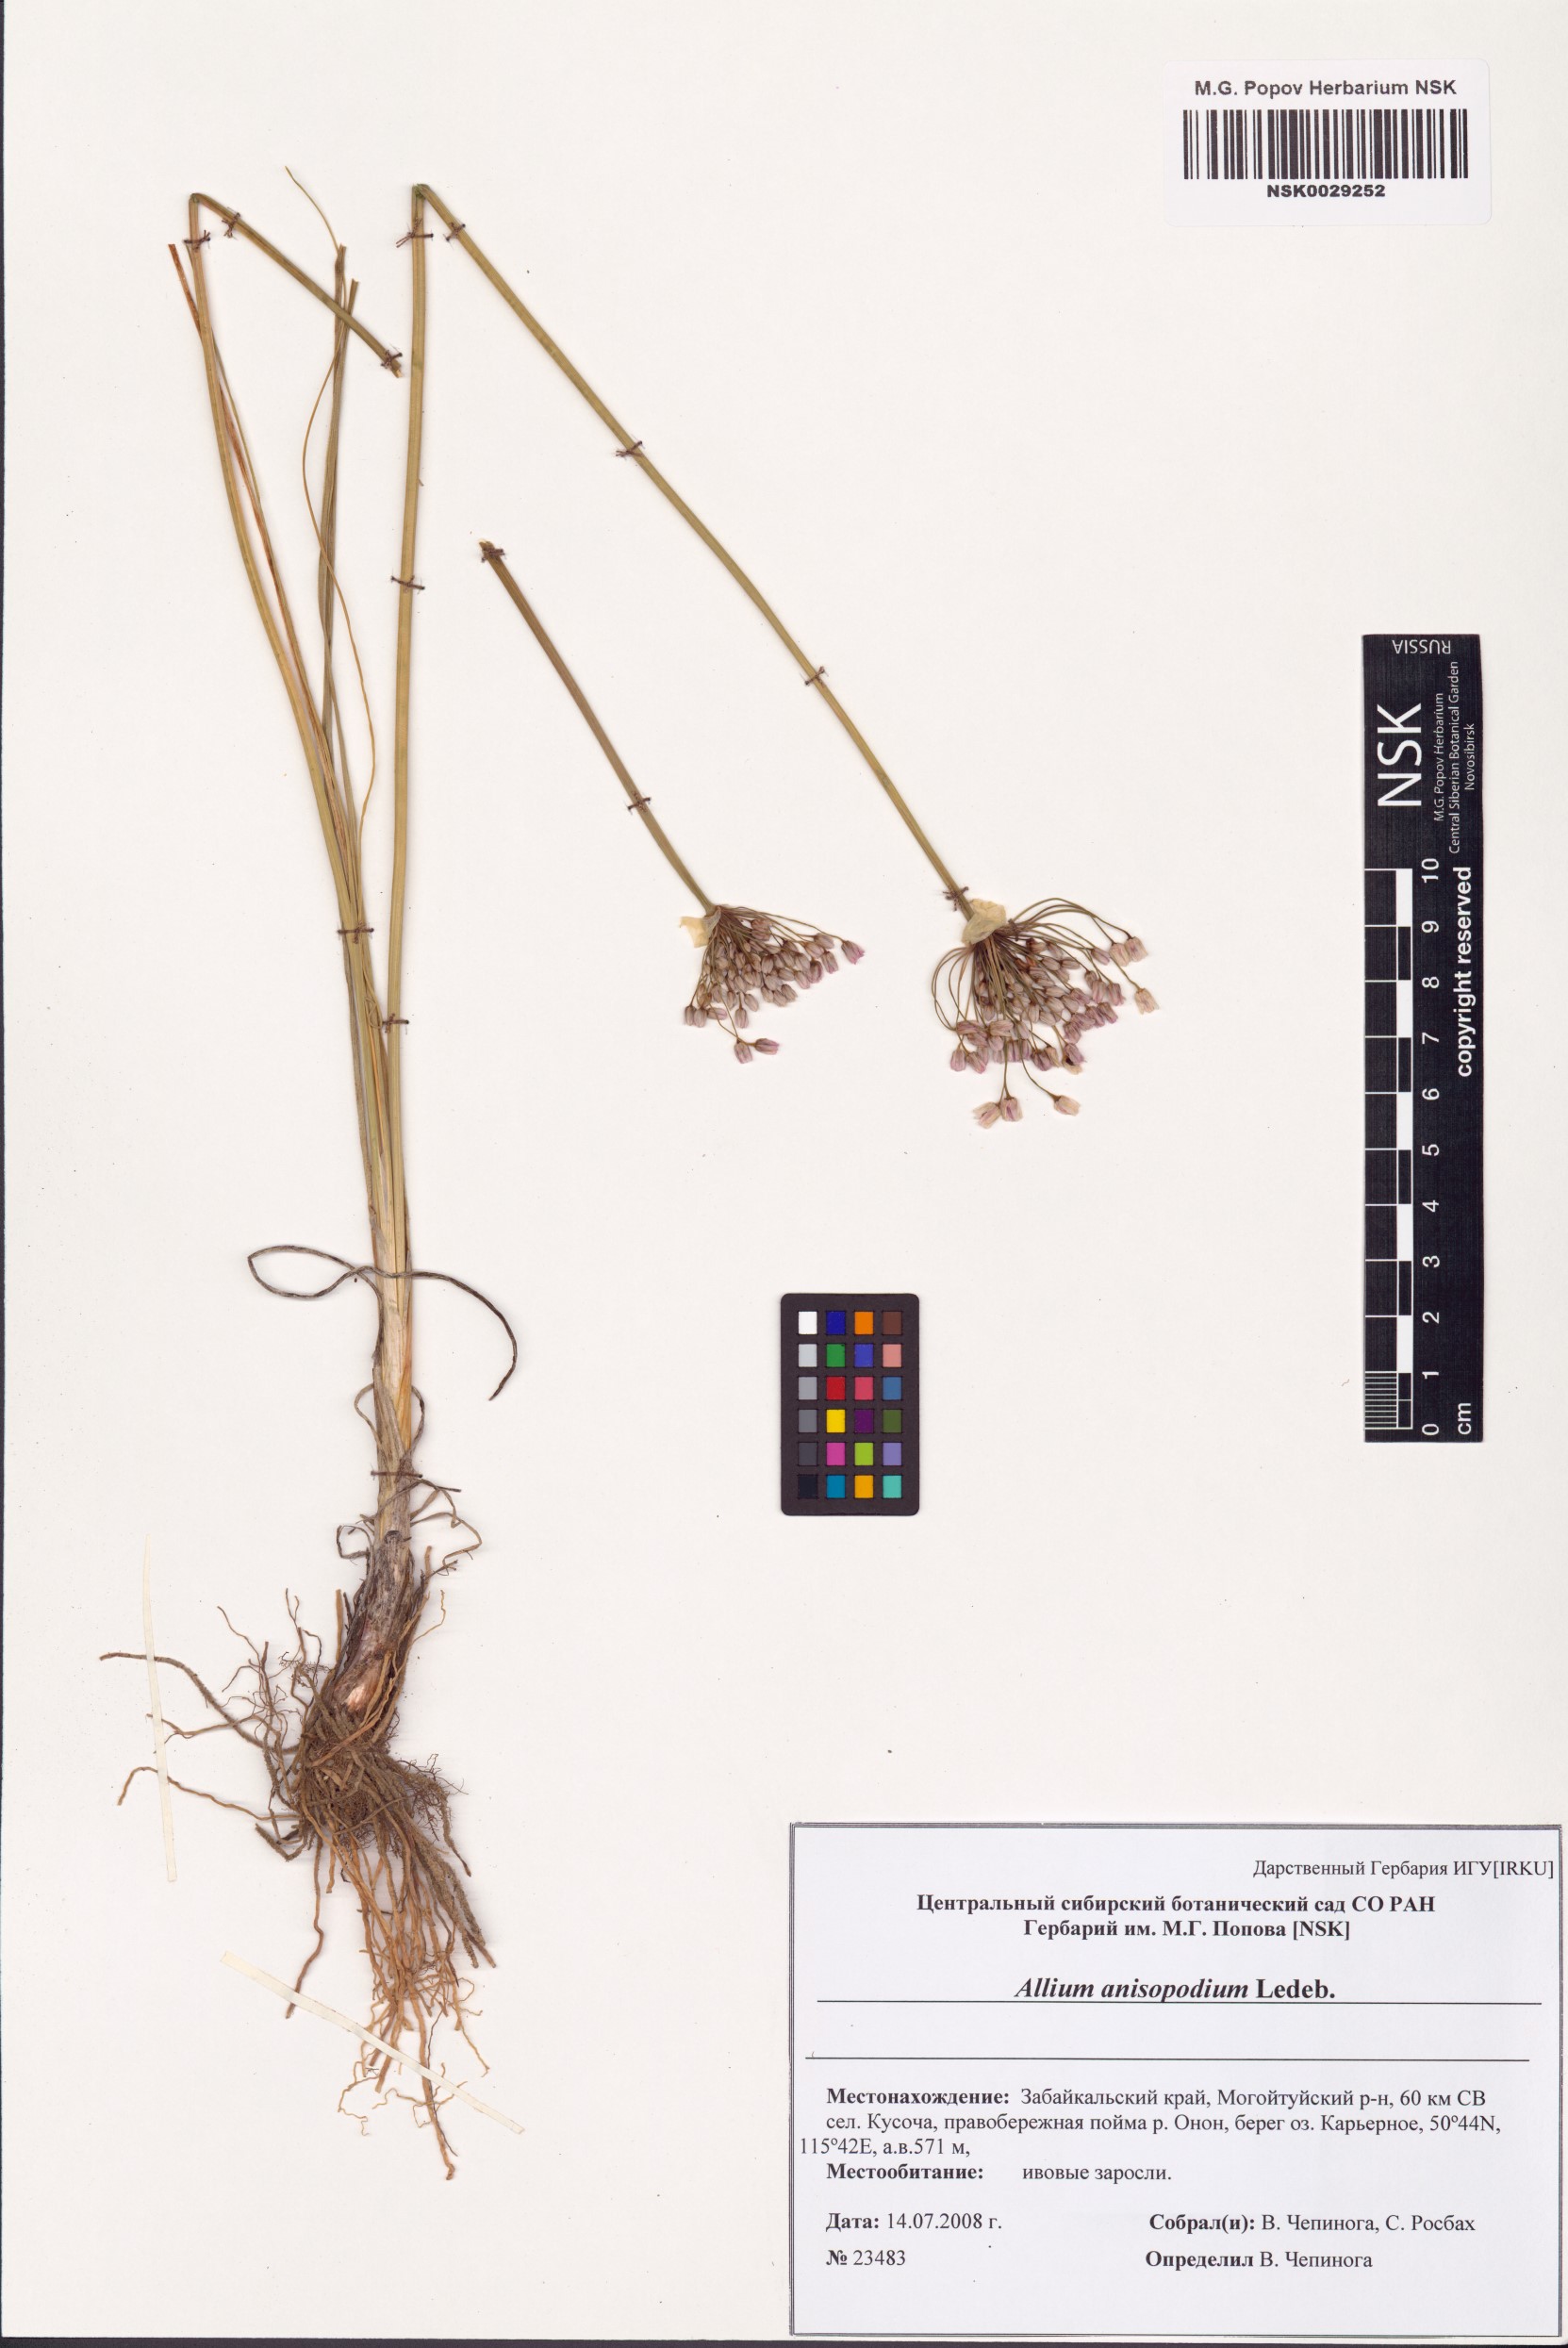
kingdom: Plantae
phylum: Tracheophyta
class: Liliopsida
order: Asparagales
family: Amaryllidaceae
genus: Allium
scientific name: Allium anisopodium
